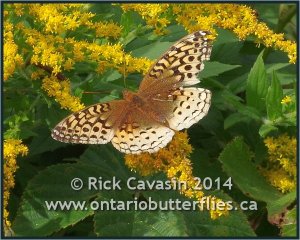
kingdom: Animalia
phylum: Arthropoda
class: Insecta
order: Lepidoptera
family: Nymphalidae
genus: Speyeria
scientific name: Speyeria cybele
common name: Great Spangled Fritillary
